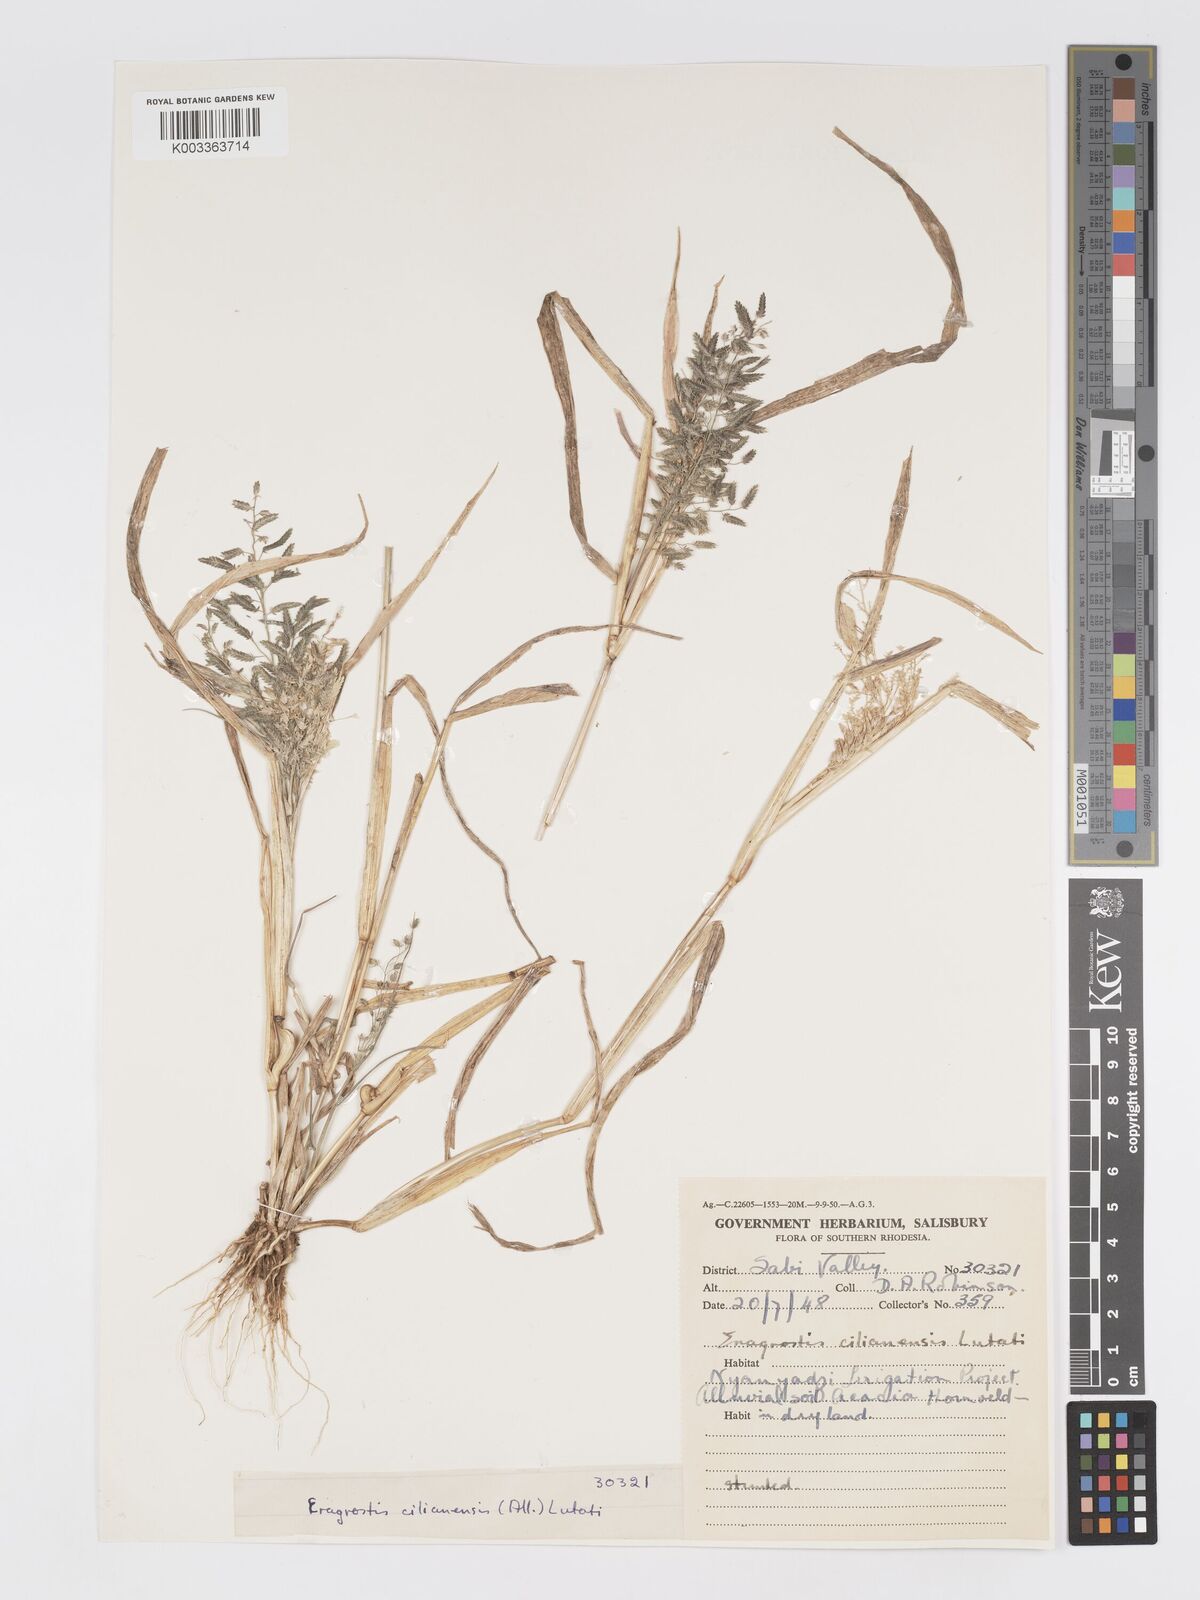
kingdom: Plantae
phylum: Tracheophyta
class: Liliopsida
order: Poales
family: Poaceae
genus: Eragrostis
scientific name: Eragrostis cilianensis
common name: Stinkgrass
